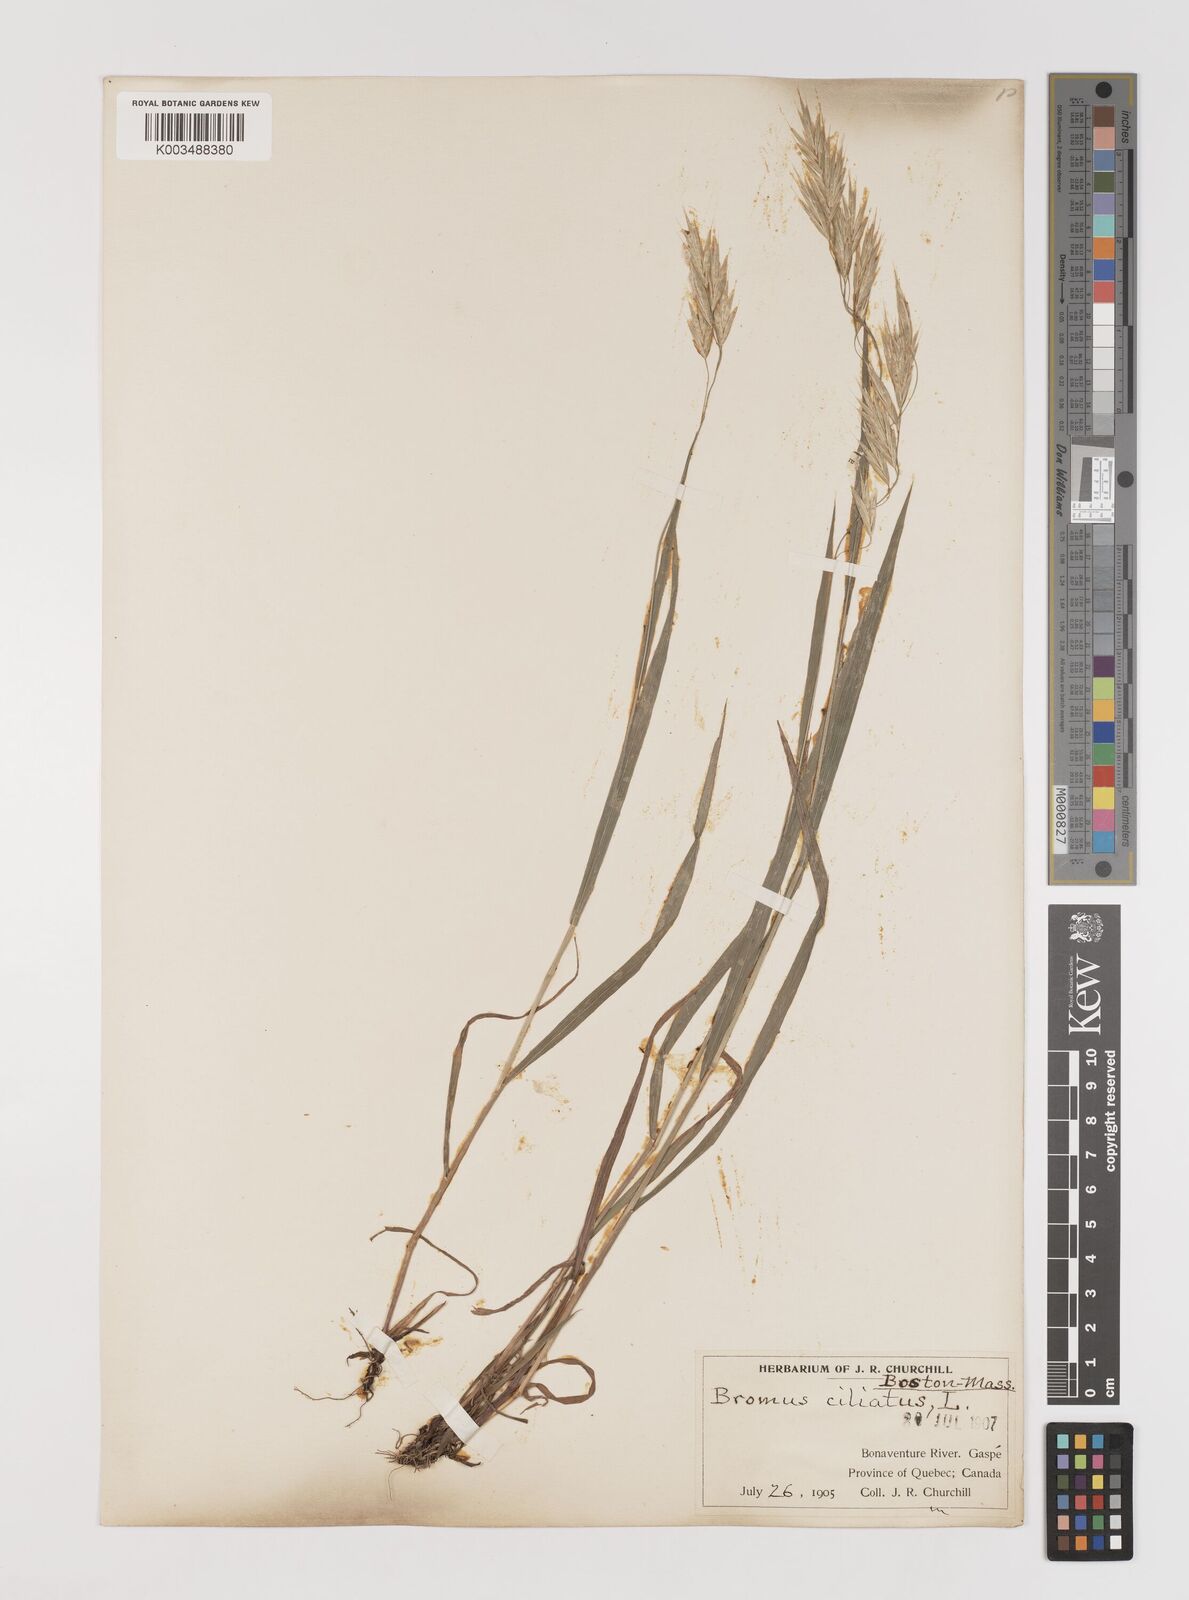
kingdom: Plantae
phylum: Tracheophyta
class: Liliopsida
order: Poales
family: Poaceae
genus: Bromus
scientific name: Bromus ciliatus
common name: Fringe brome
